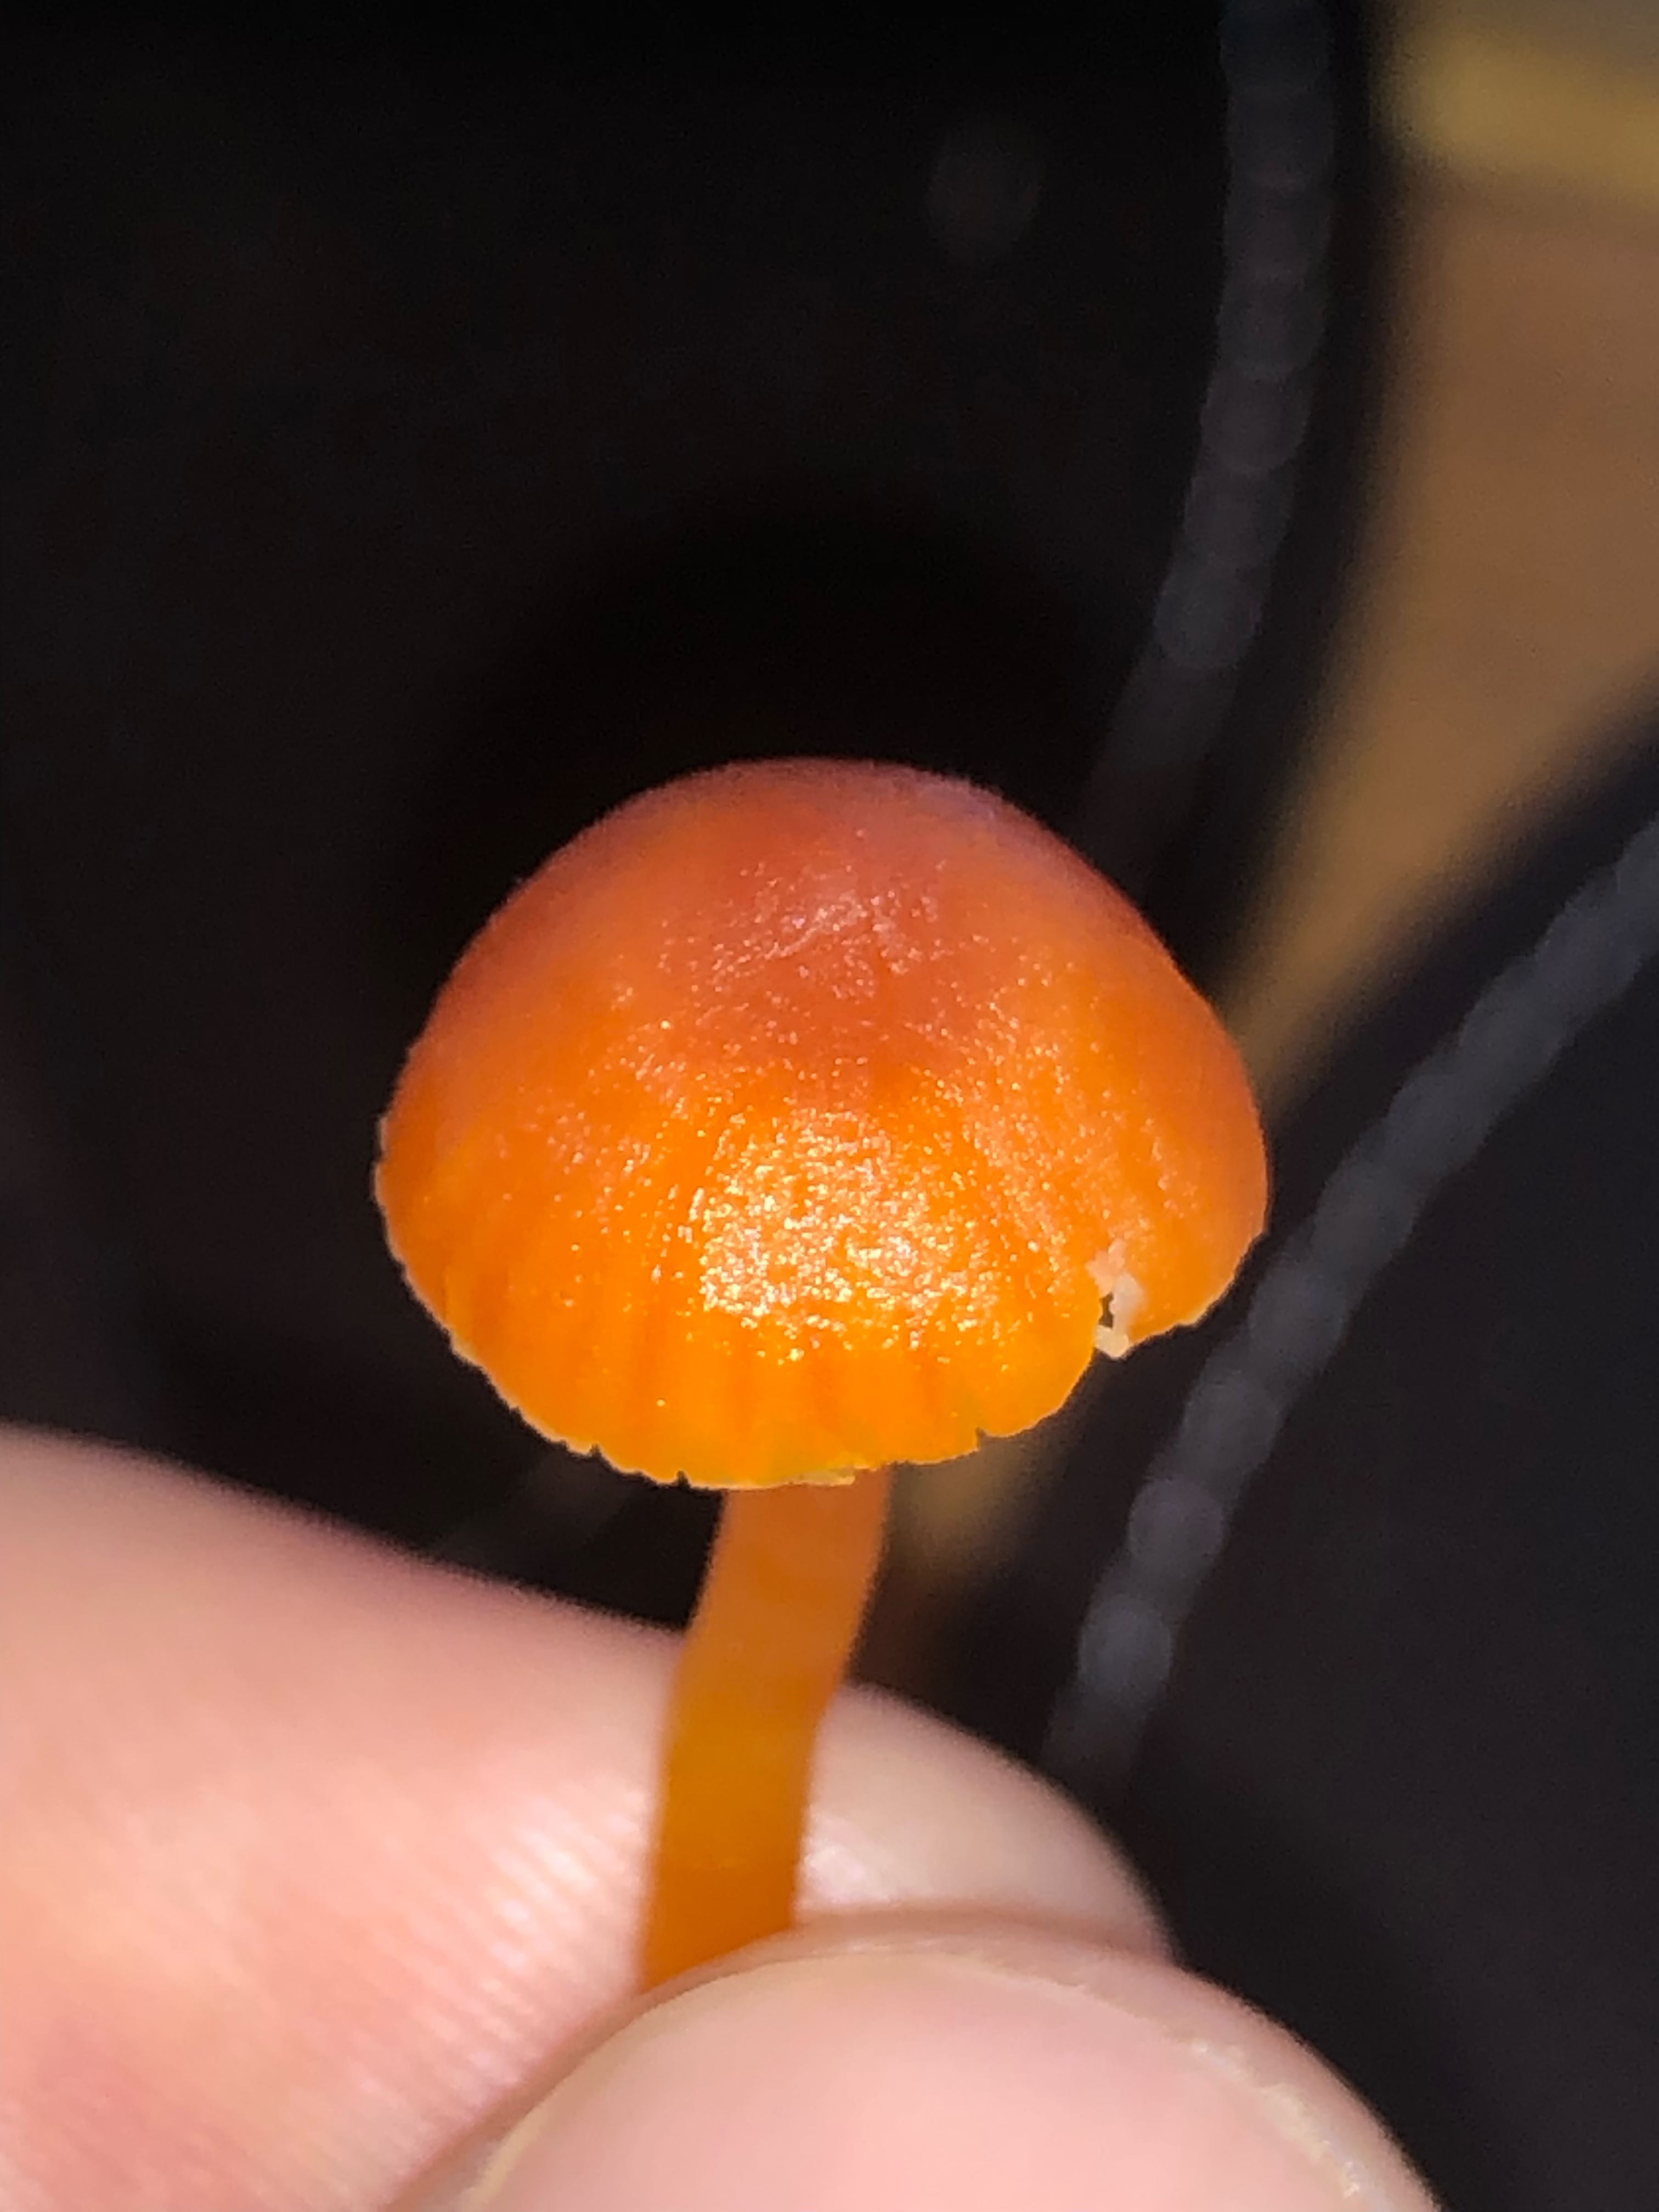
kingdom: Fungi
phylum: Basidiomycota
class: Agaricomycetes
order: Agaricales
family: Hygrophoraceae
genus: Hygrocybe
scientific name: Hygrocybe calciphila
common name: kalk-vokshat
